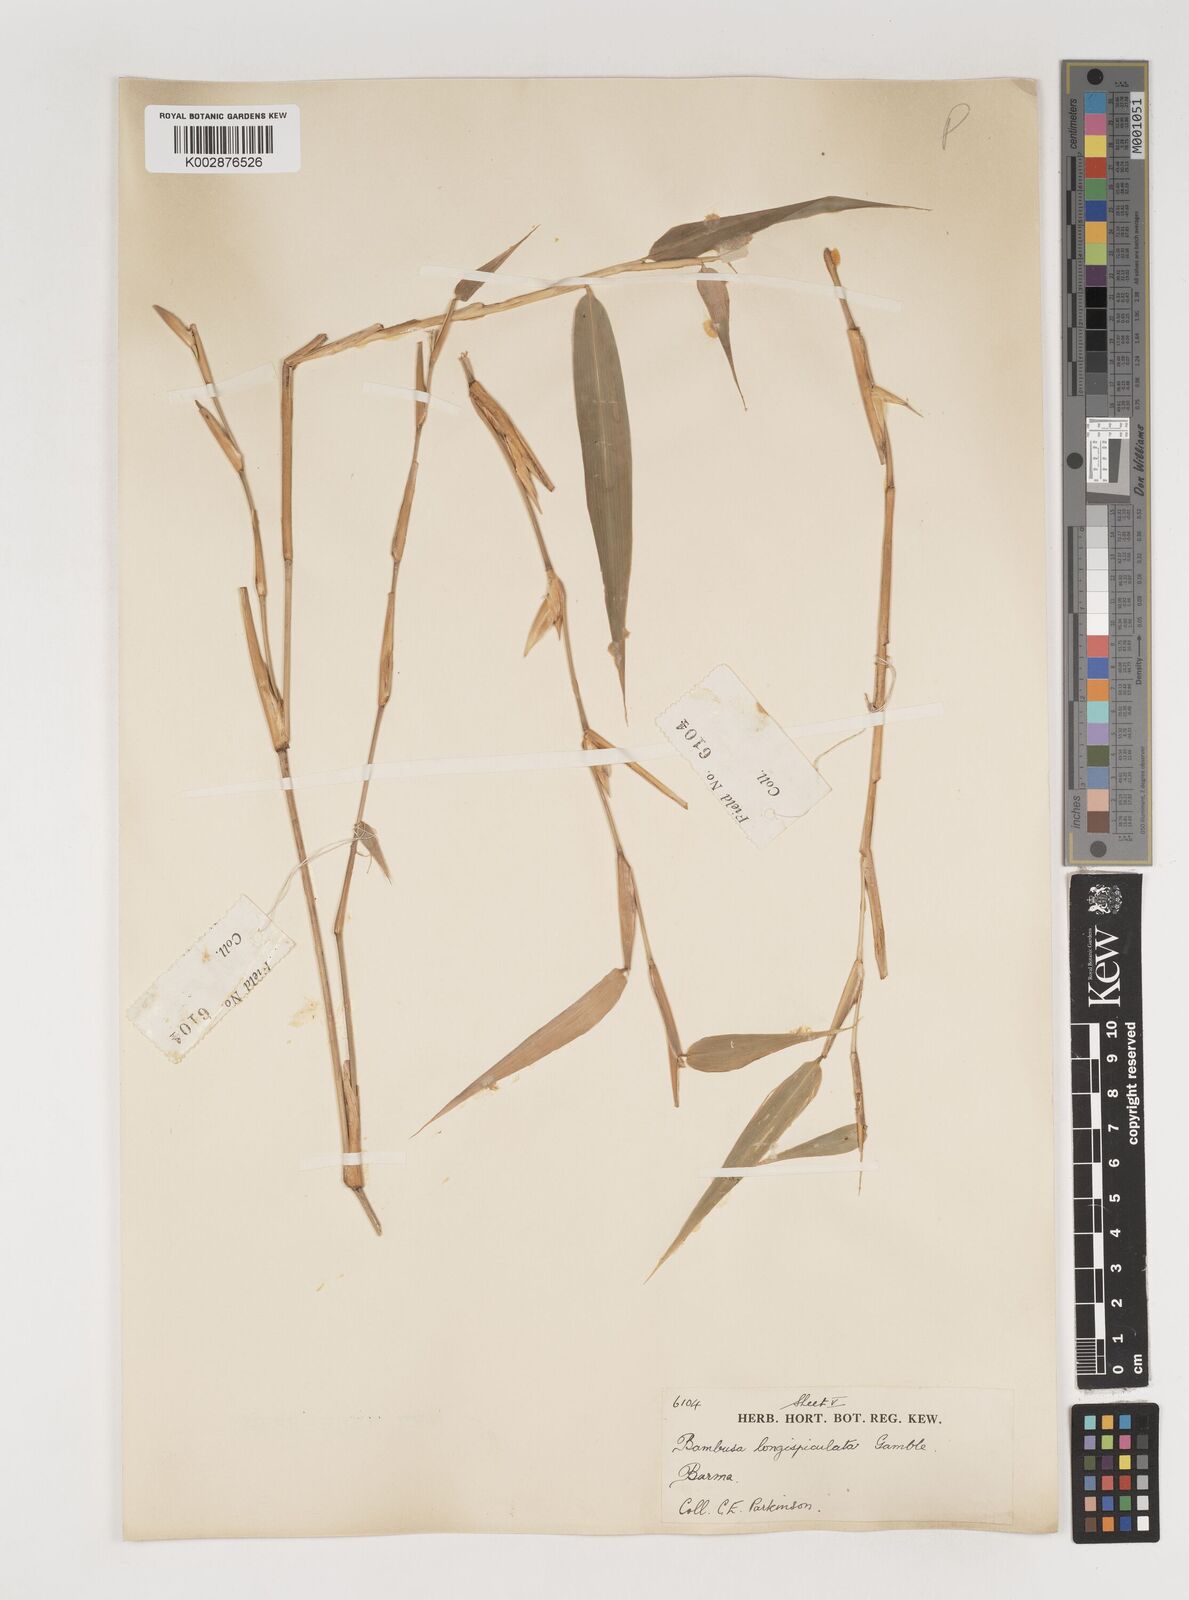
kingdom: Plantae
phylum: Tracheophyta
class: Liliopsida
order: Poales
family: Poaceae
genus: Bambusa
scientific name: Bambusa longispiculata
